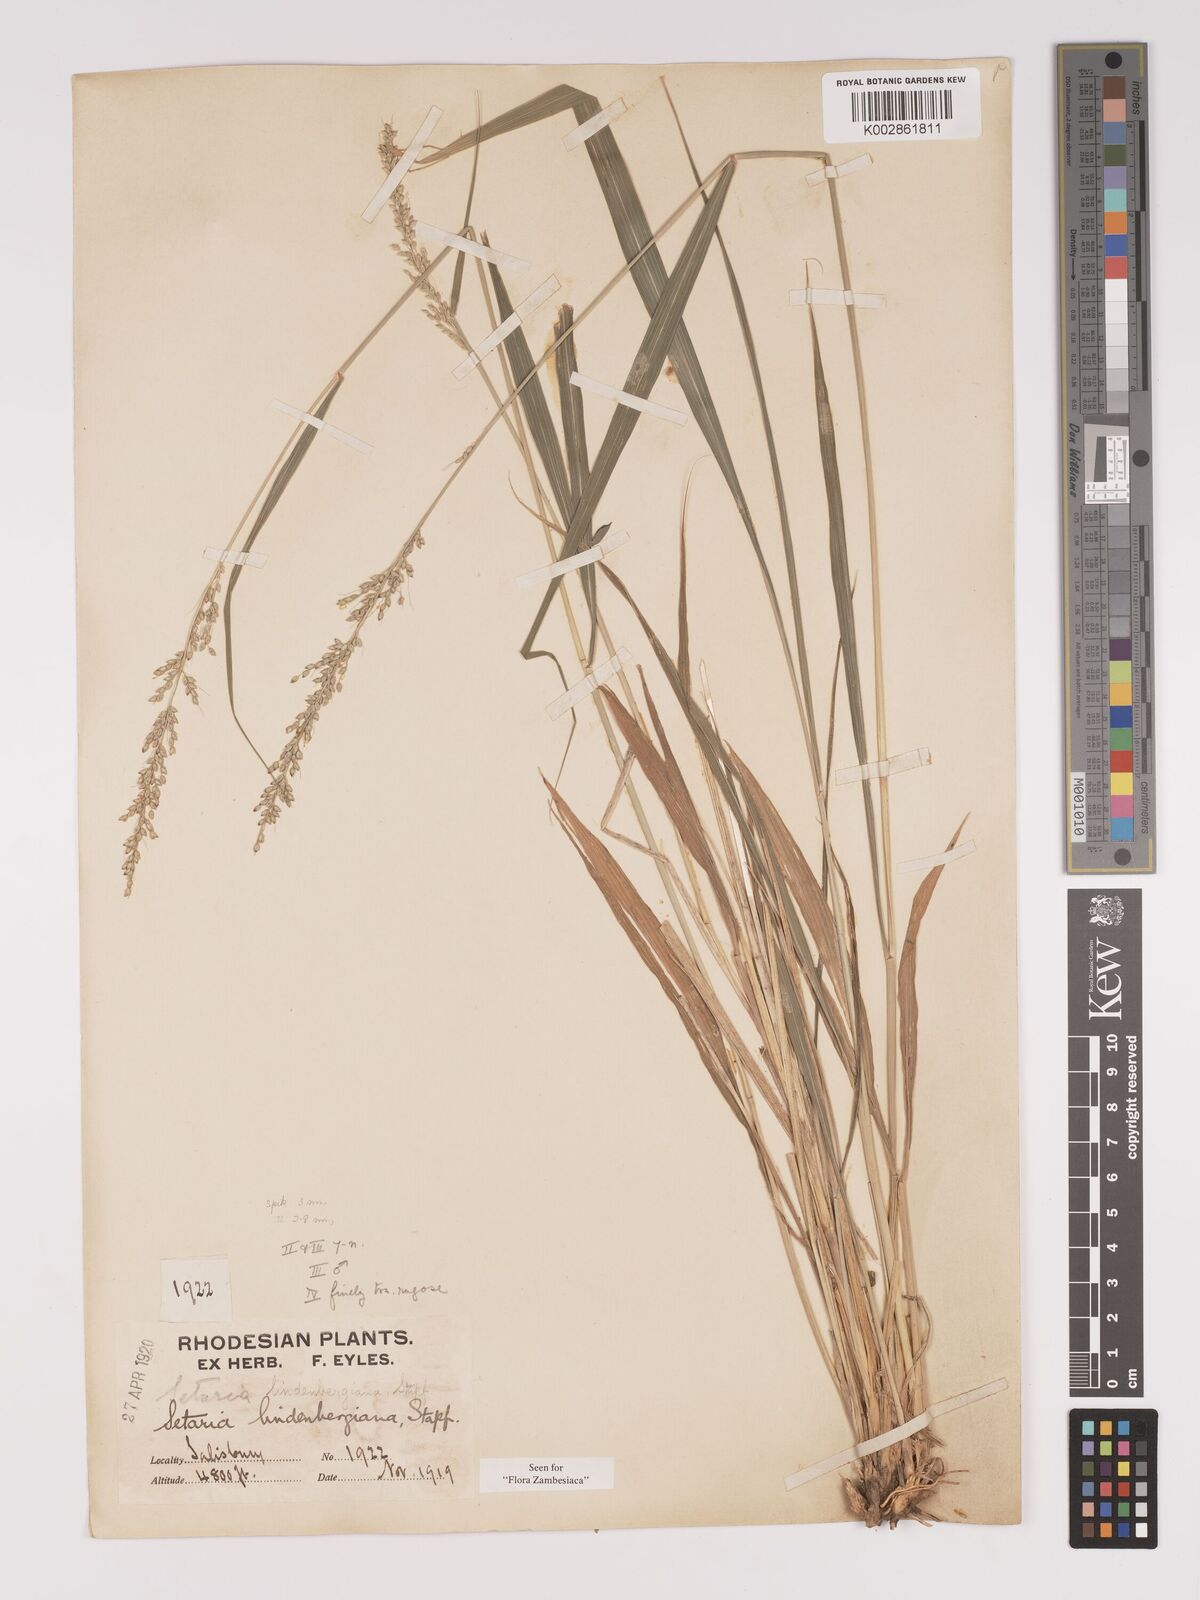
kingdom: Plantae
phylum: Tracheophyta
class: Liliopsida
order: Poales
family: Poaceae
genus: Setaria
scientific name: Setaria lindenbergiana
